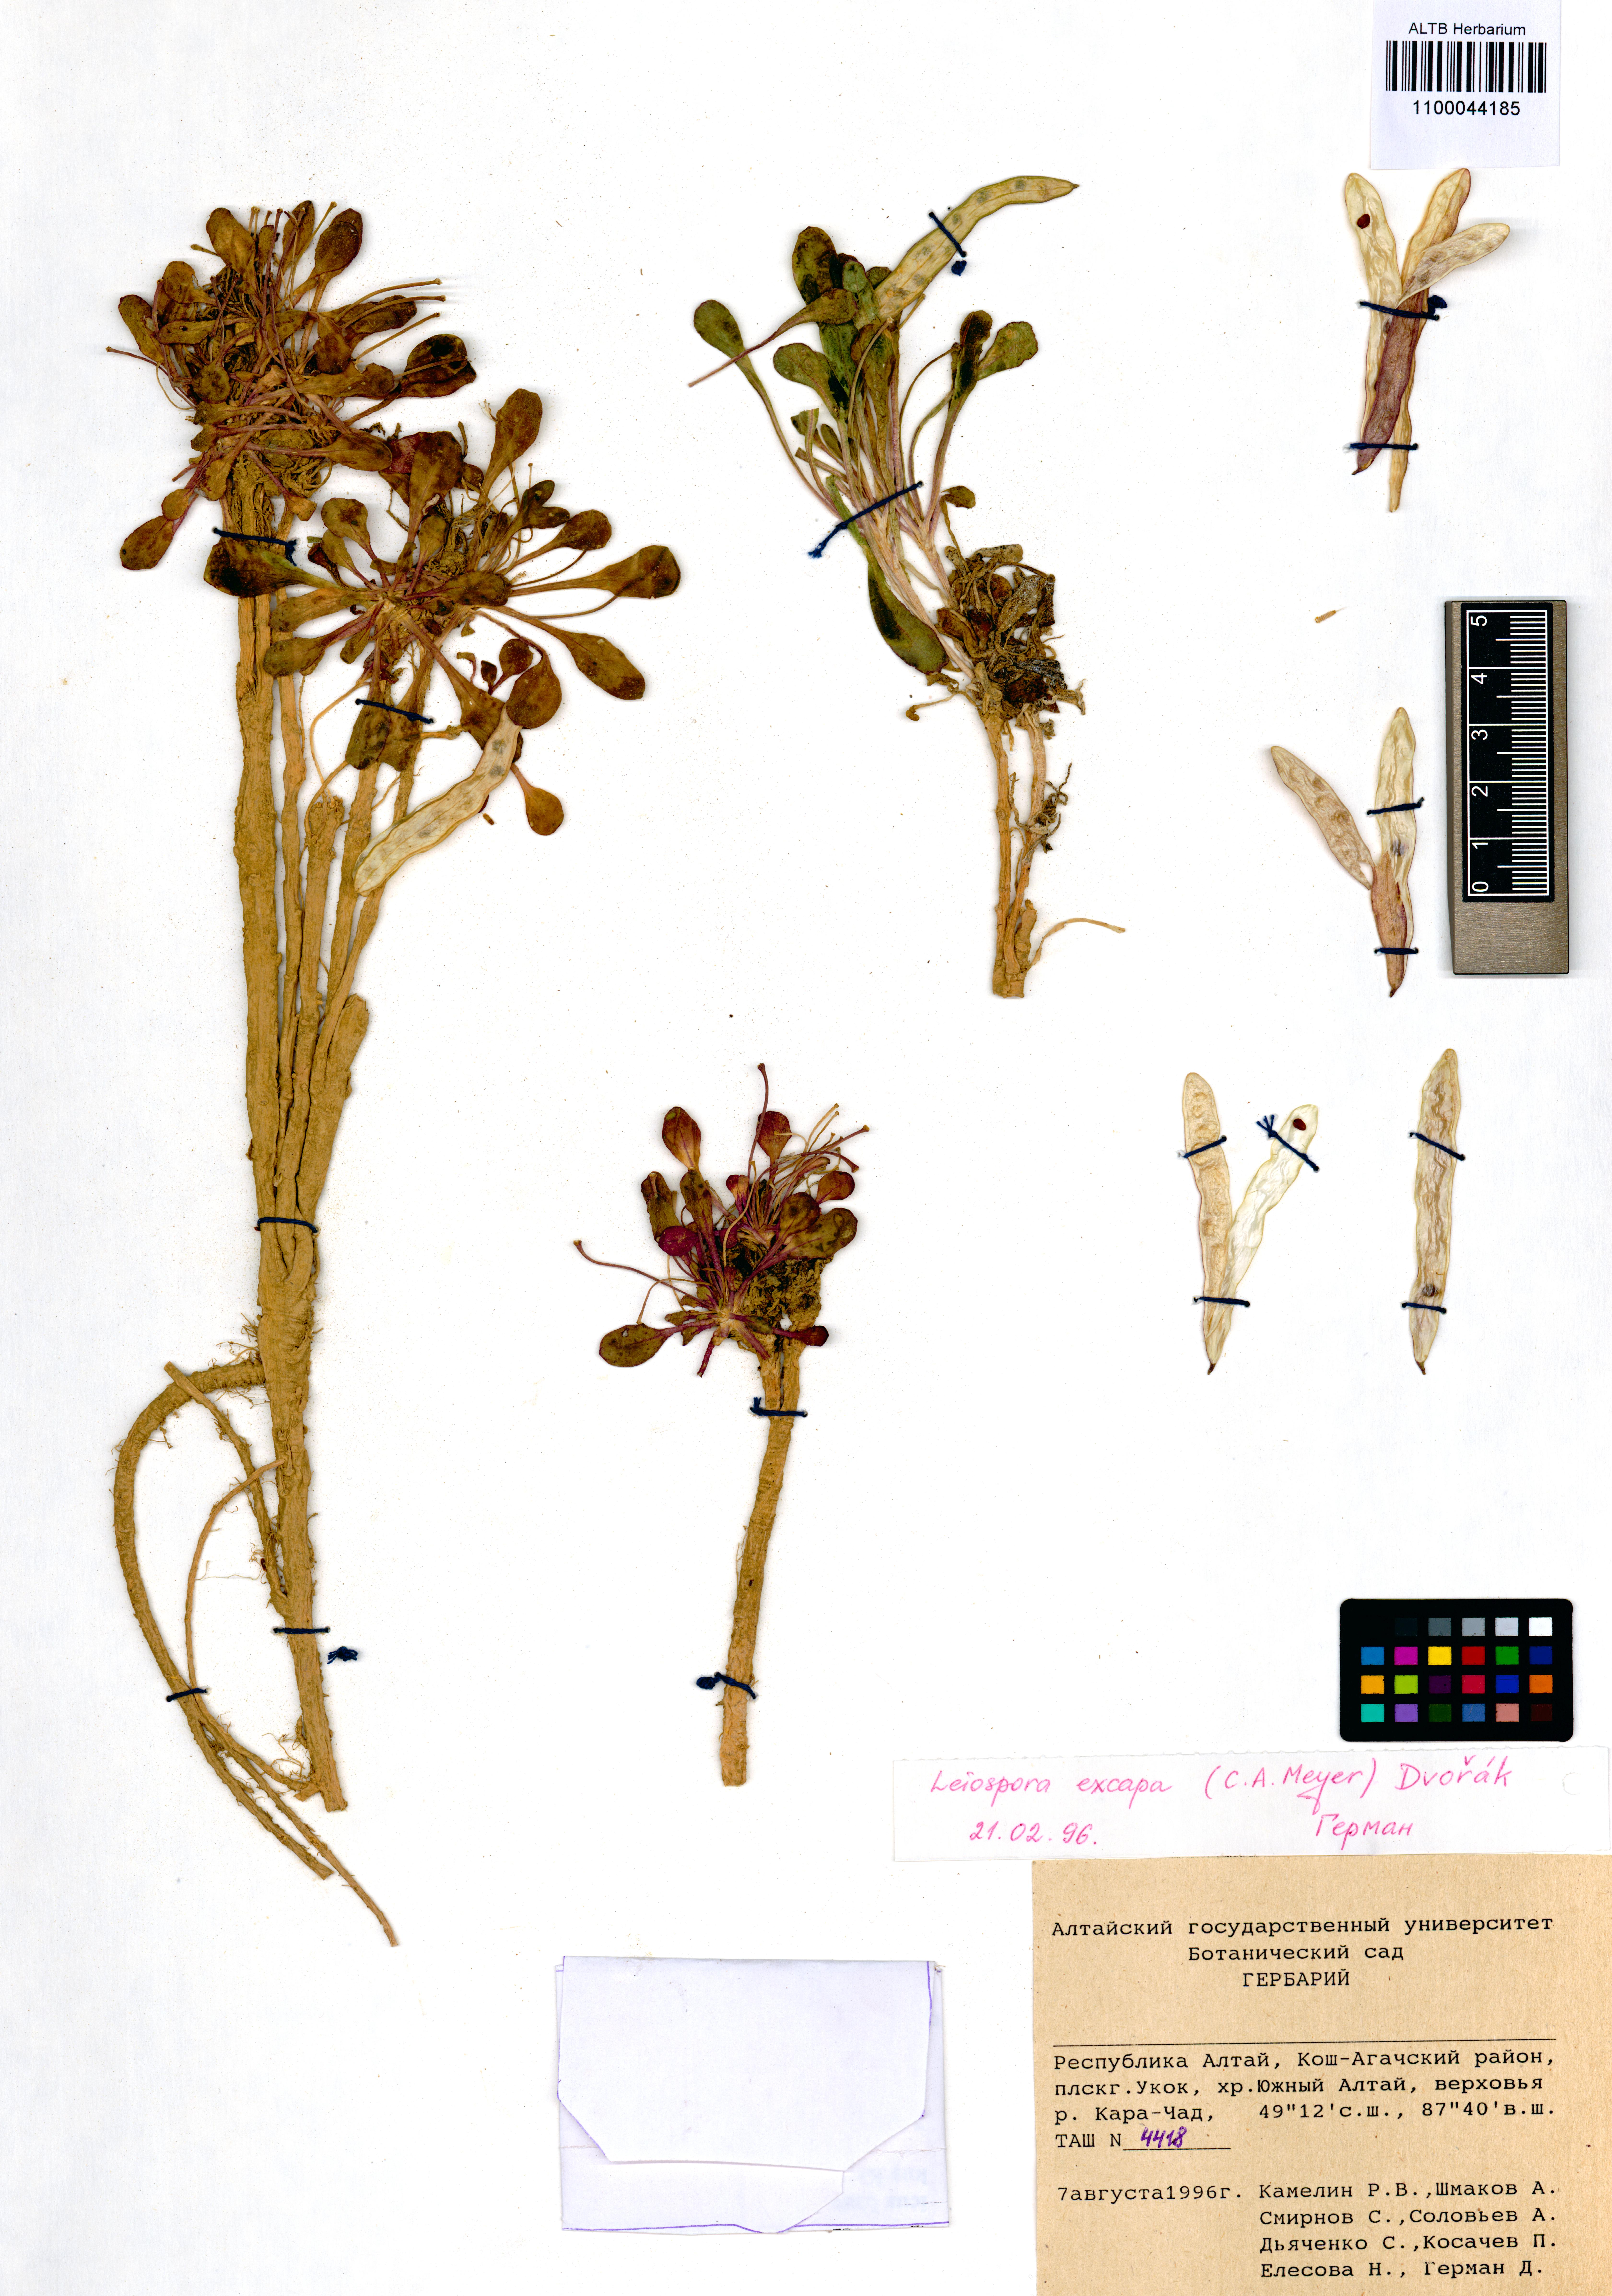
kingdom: Plantae
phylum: Tracheophyta
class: Magnoliopsida
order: Brassicales
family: Brassicaceae
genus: Leiospora
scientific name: Leiospora exscapa
